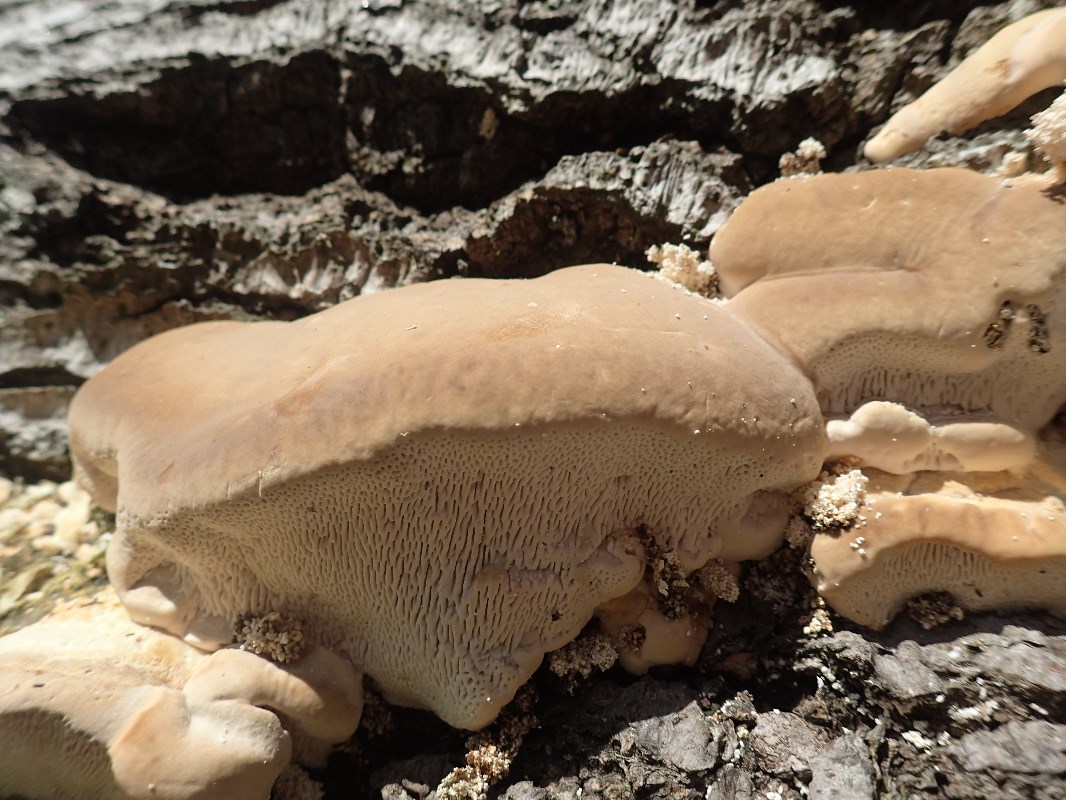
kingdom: Fungi
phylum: Basidiomycota
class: Agaricomycetes
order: Polyporales
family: Polyporaceae
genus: Trametes
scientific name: Trametes gibbosa
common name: puklet læderporesvamp
